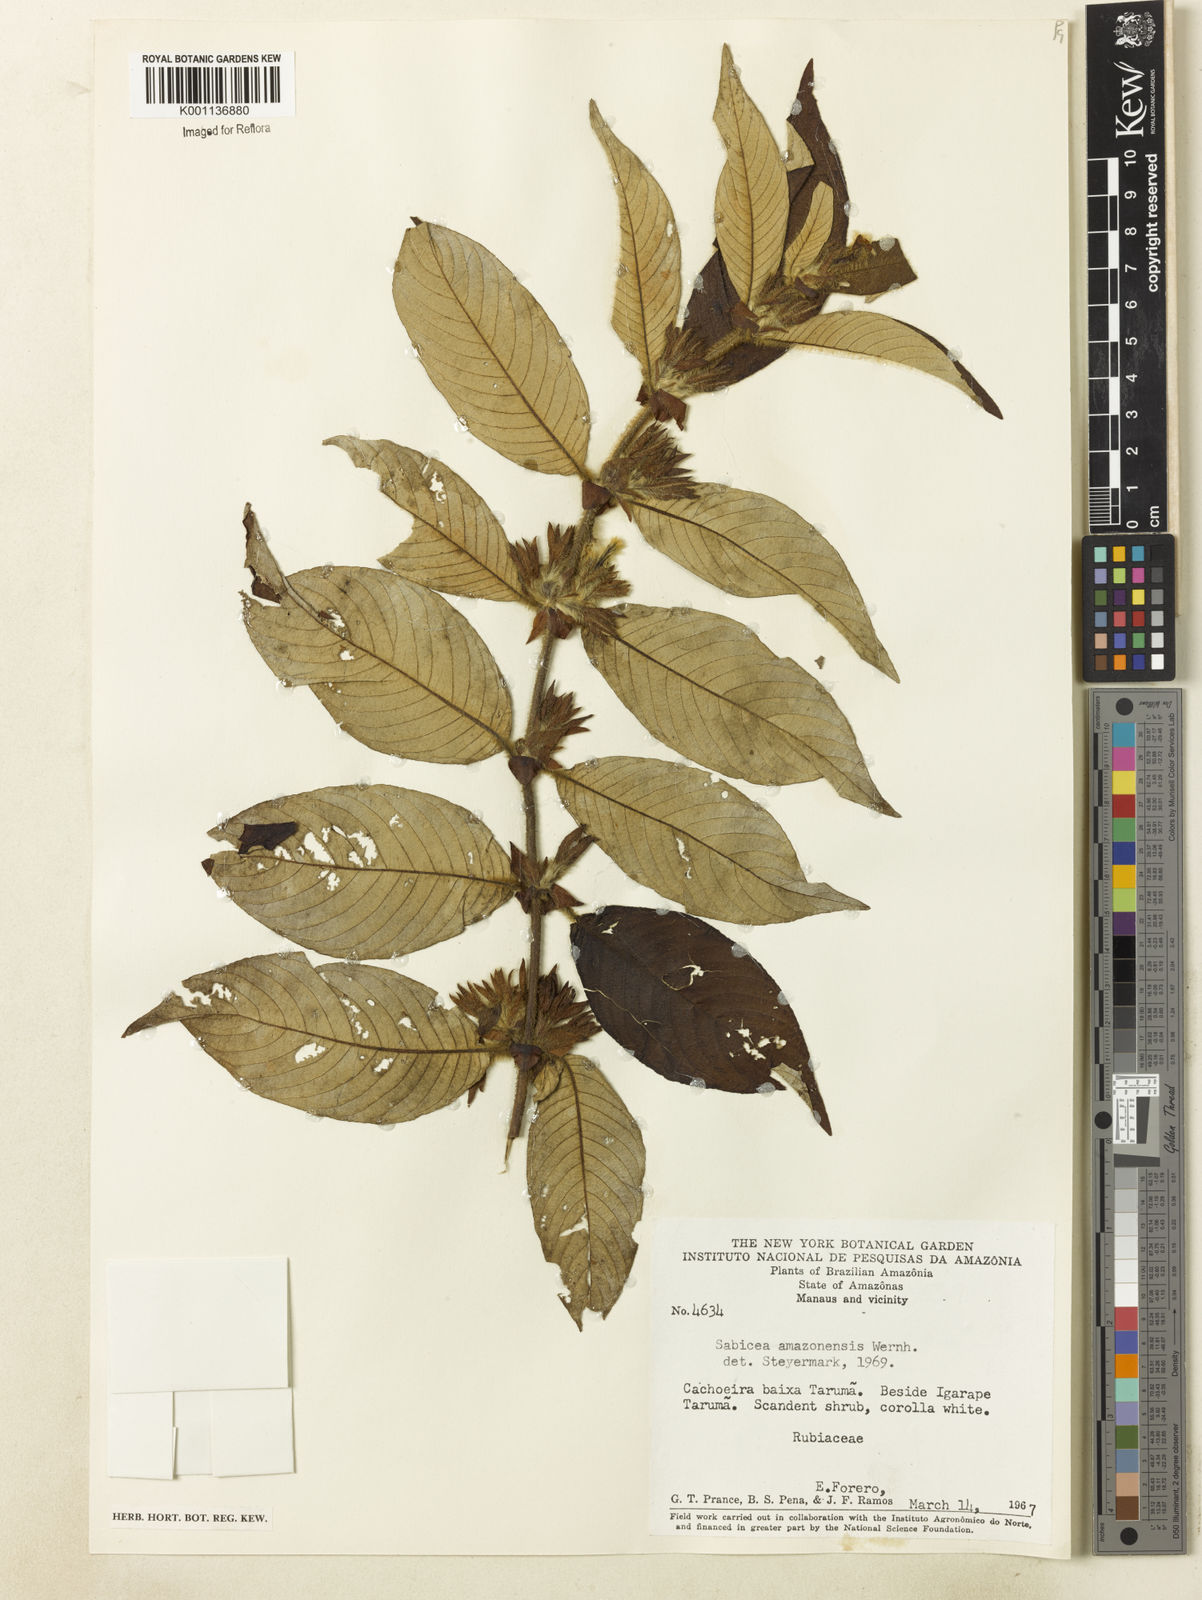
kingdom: Plantae
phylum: Tracheophyta
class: Magnoliopsida
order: Gentianales
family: Rubiaceae
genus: Sabicea
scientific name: Sabicea amazonensis
